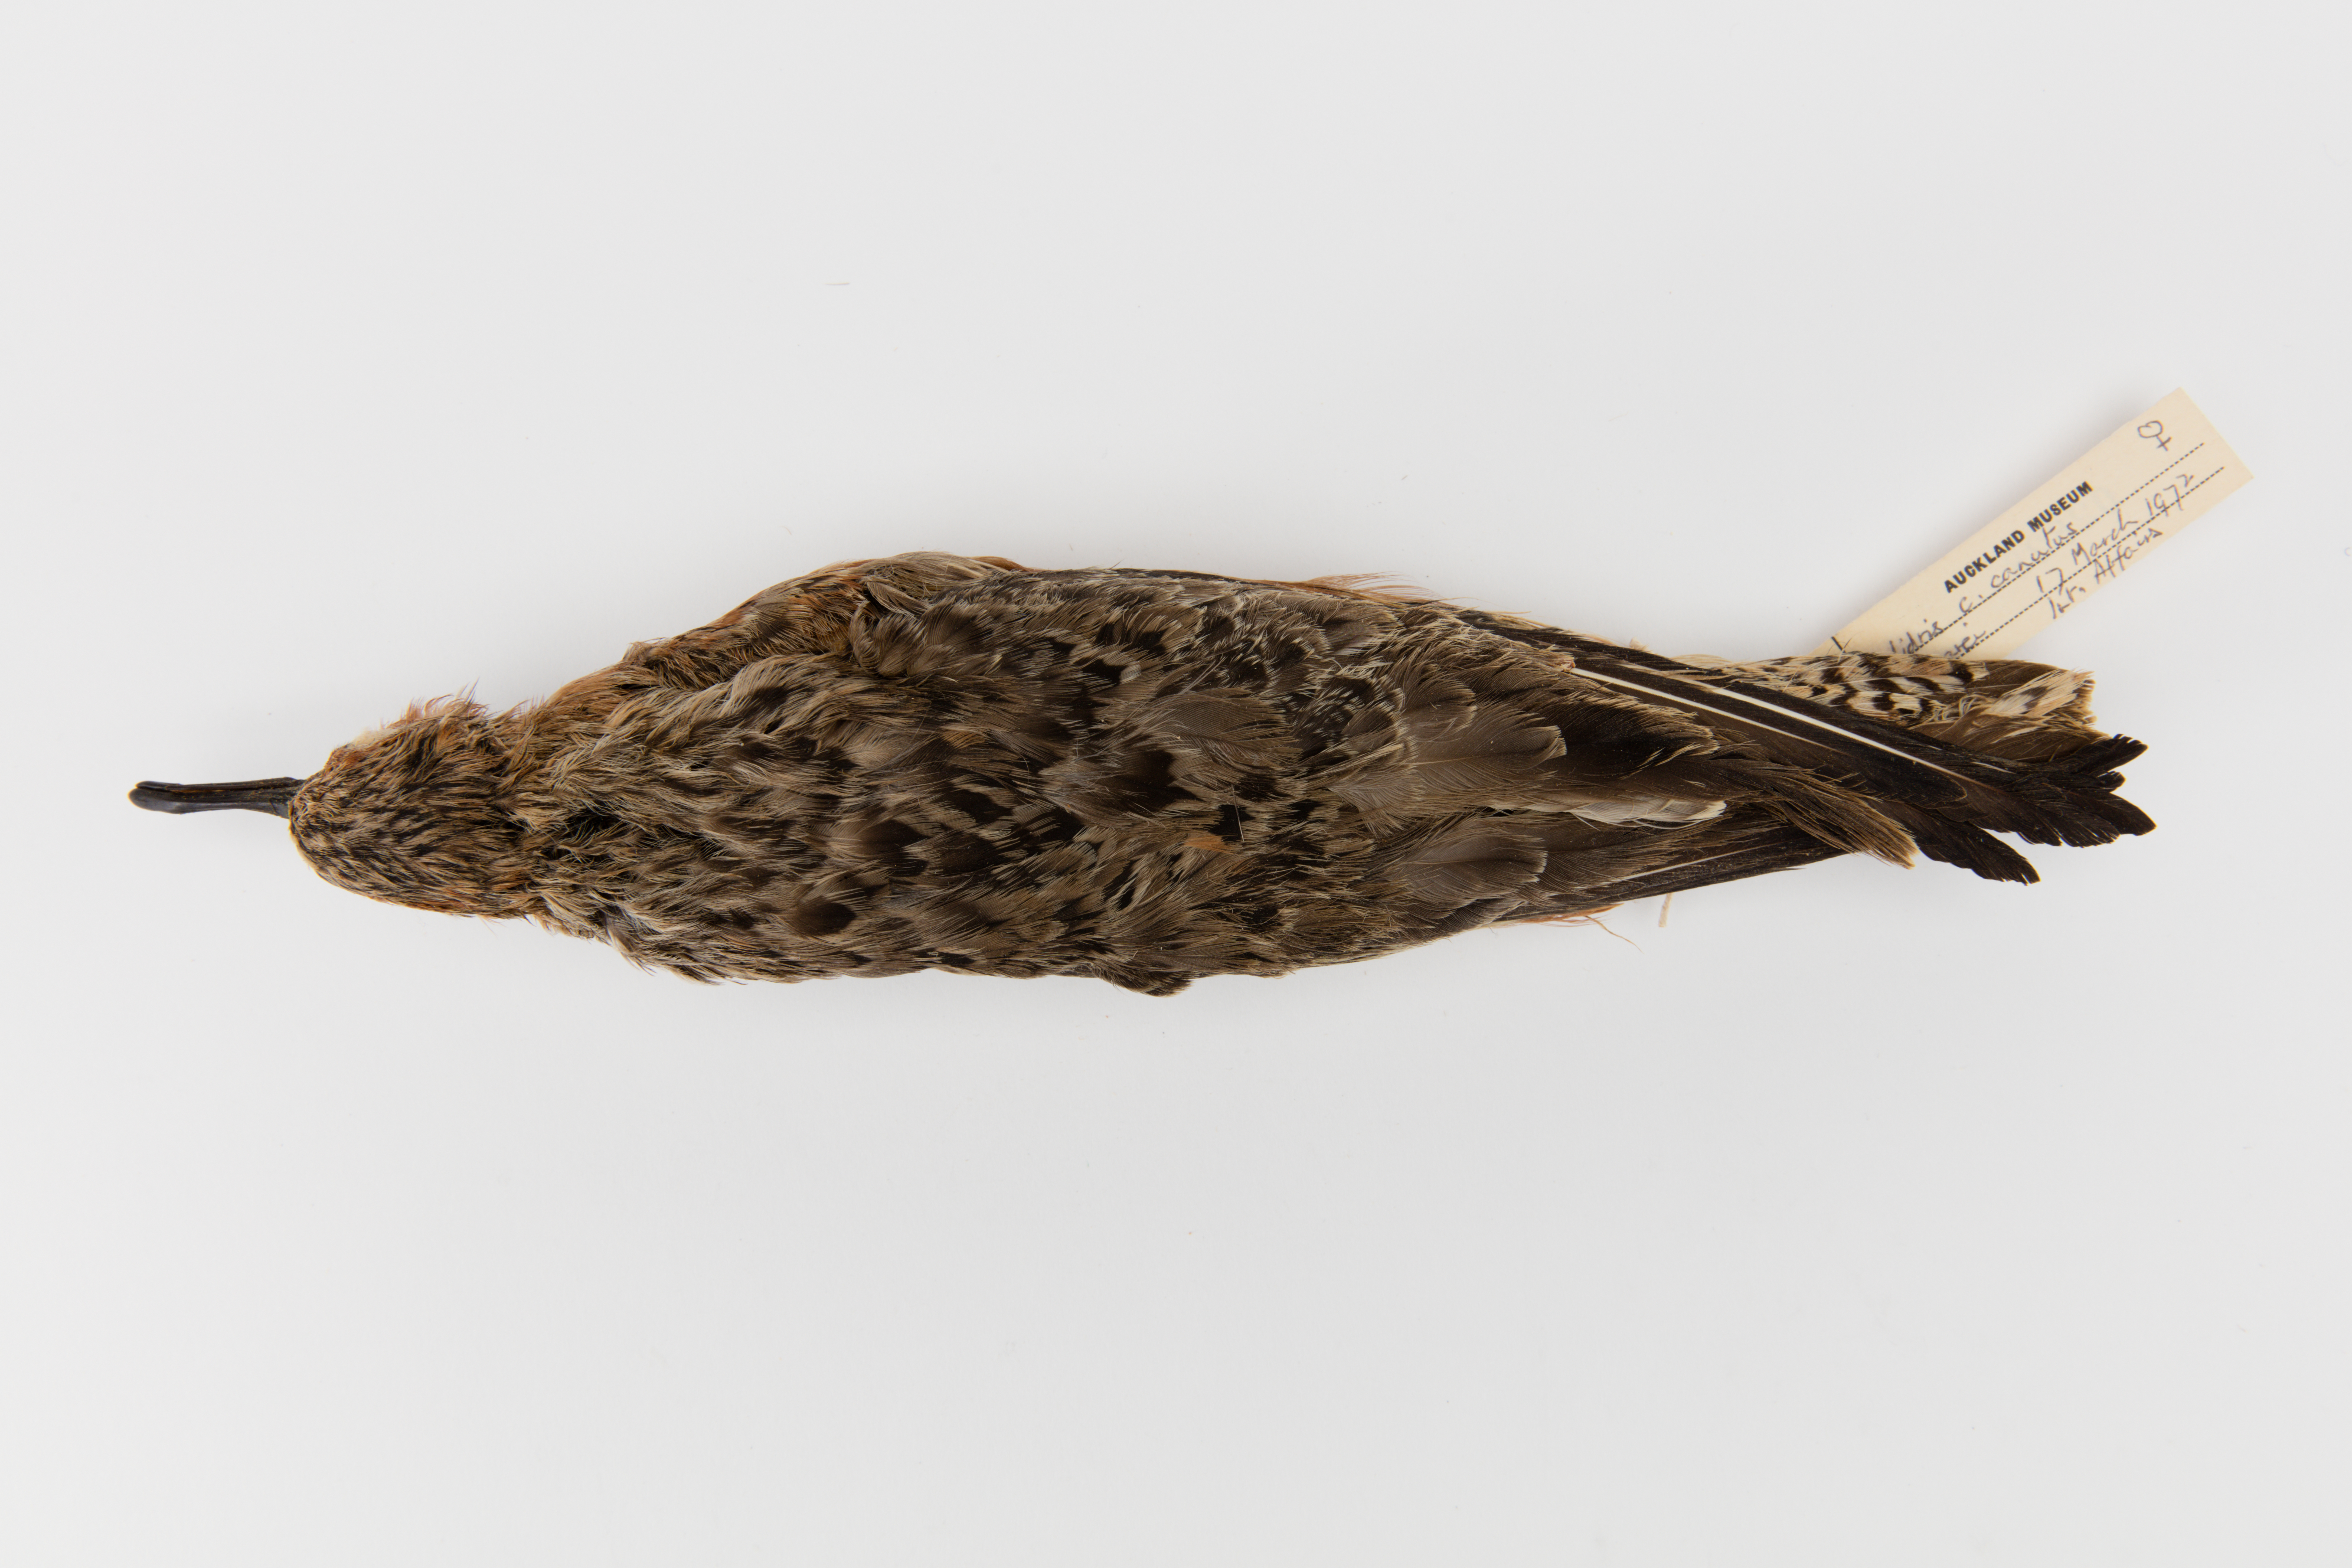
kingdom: Animalia
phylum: Chordata
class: Aves
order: Charadriiformes
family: Scolopacidae
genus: Calidris
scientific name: Calidris canutus
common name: Red knot
